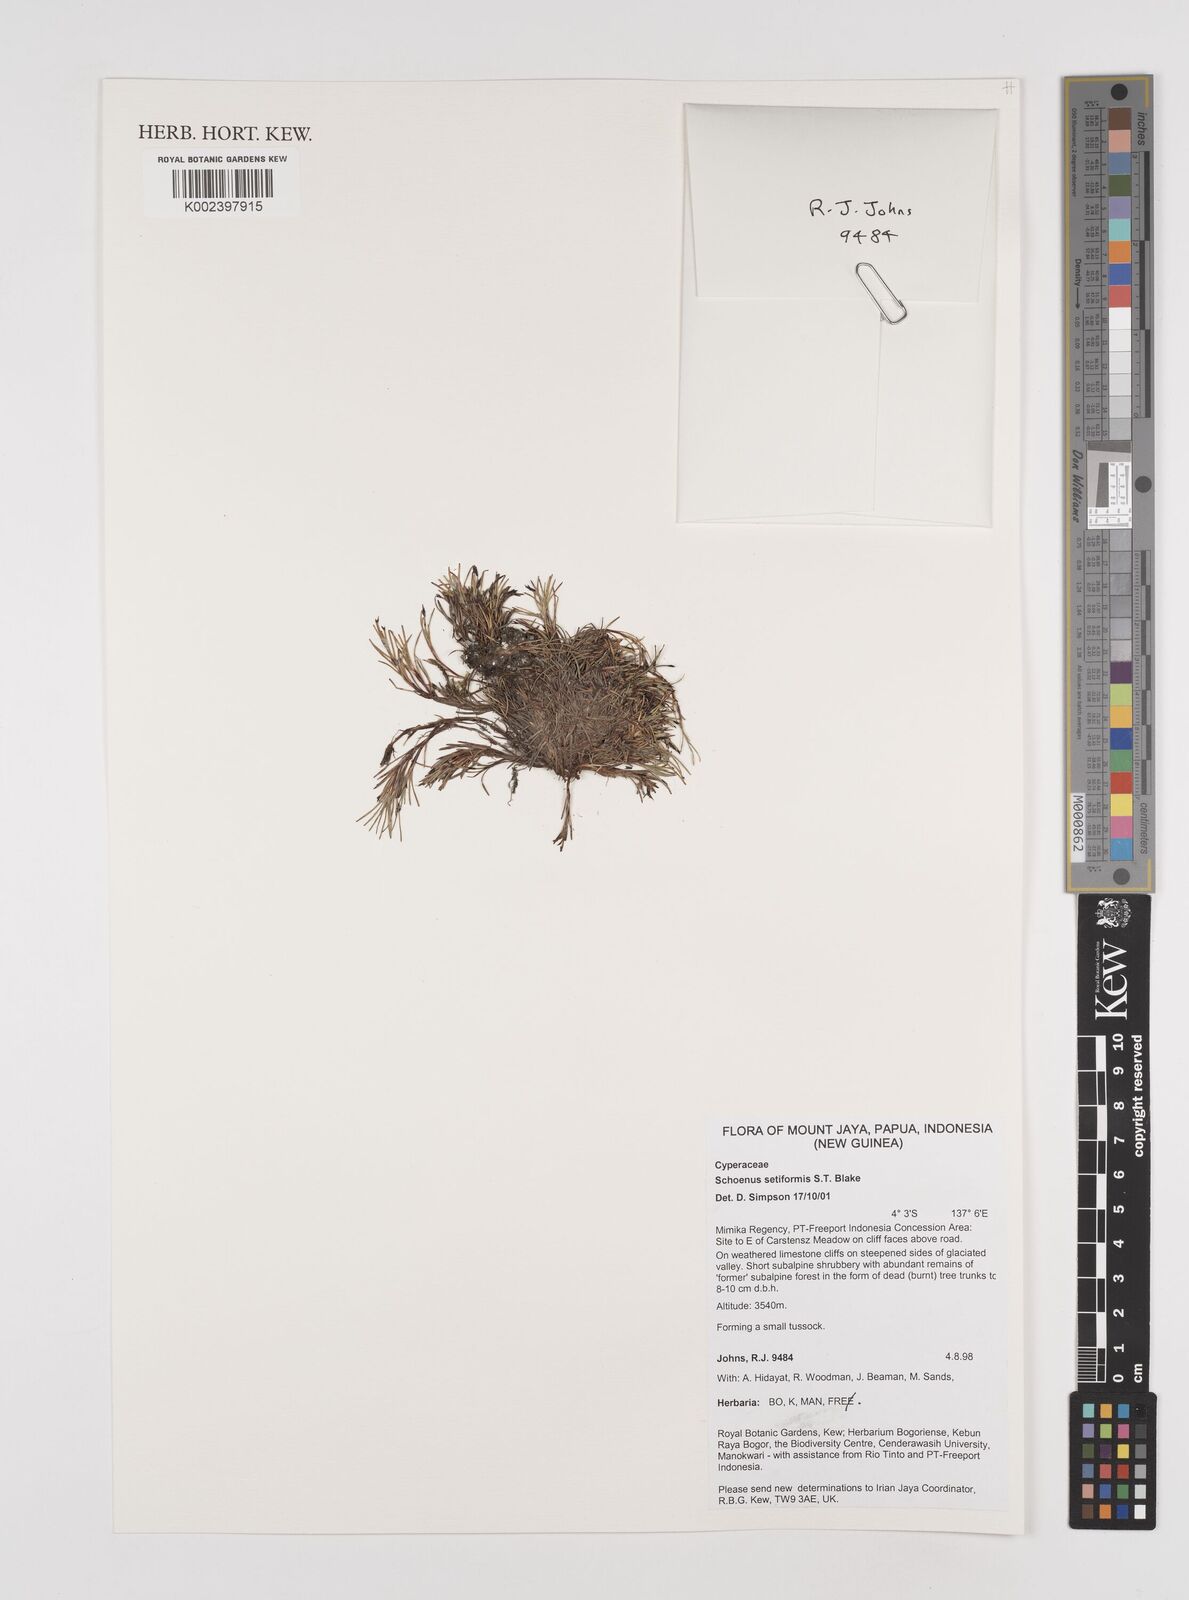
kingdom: Plantae
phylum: Tracheophyta
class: Liliopsida
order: Poales
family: Cyperaceae
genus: Schoenus
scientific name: Schoenus setiformis
